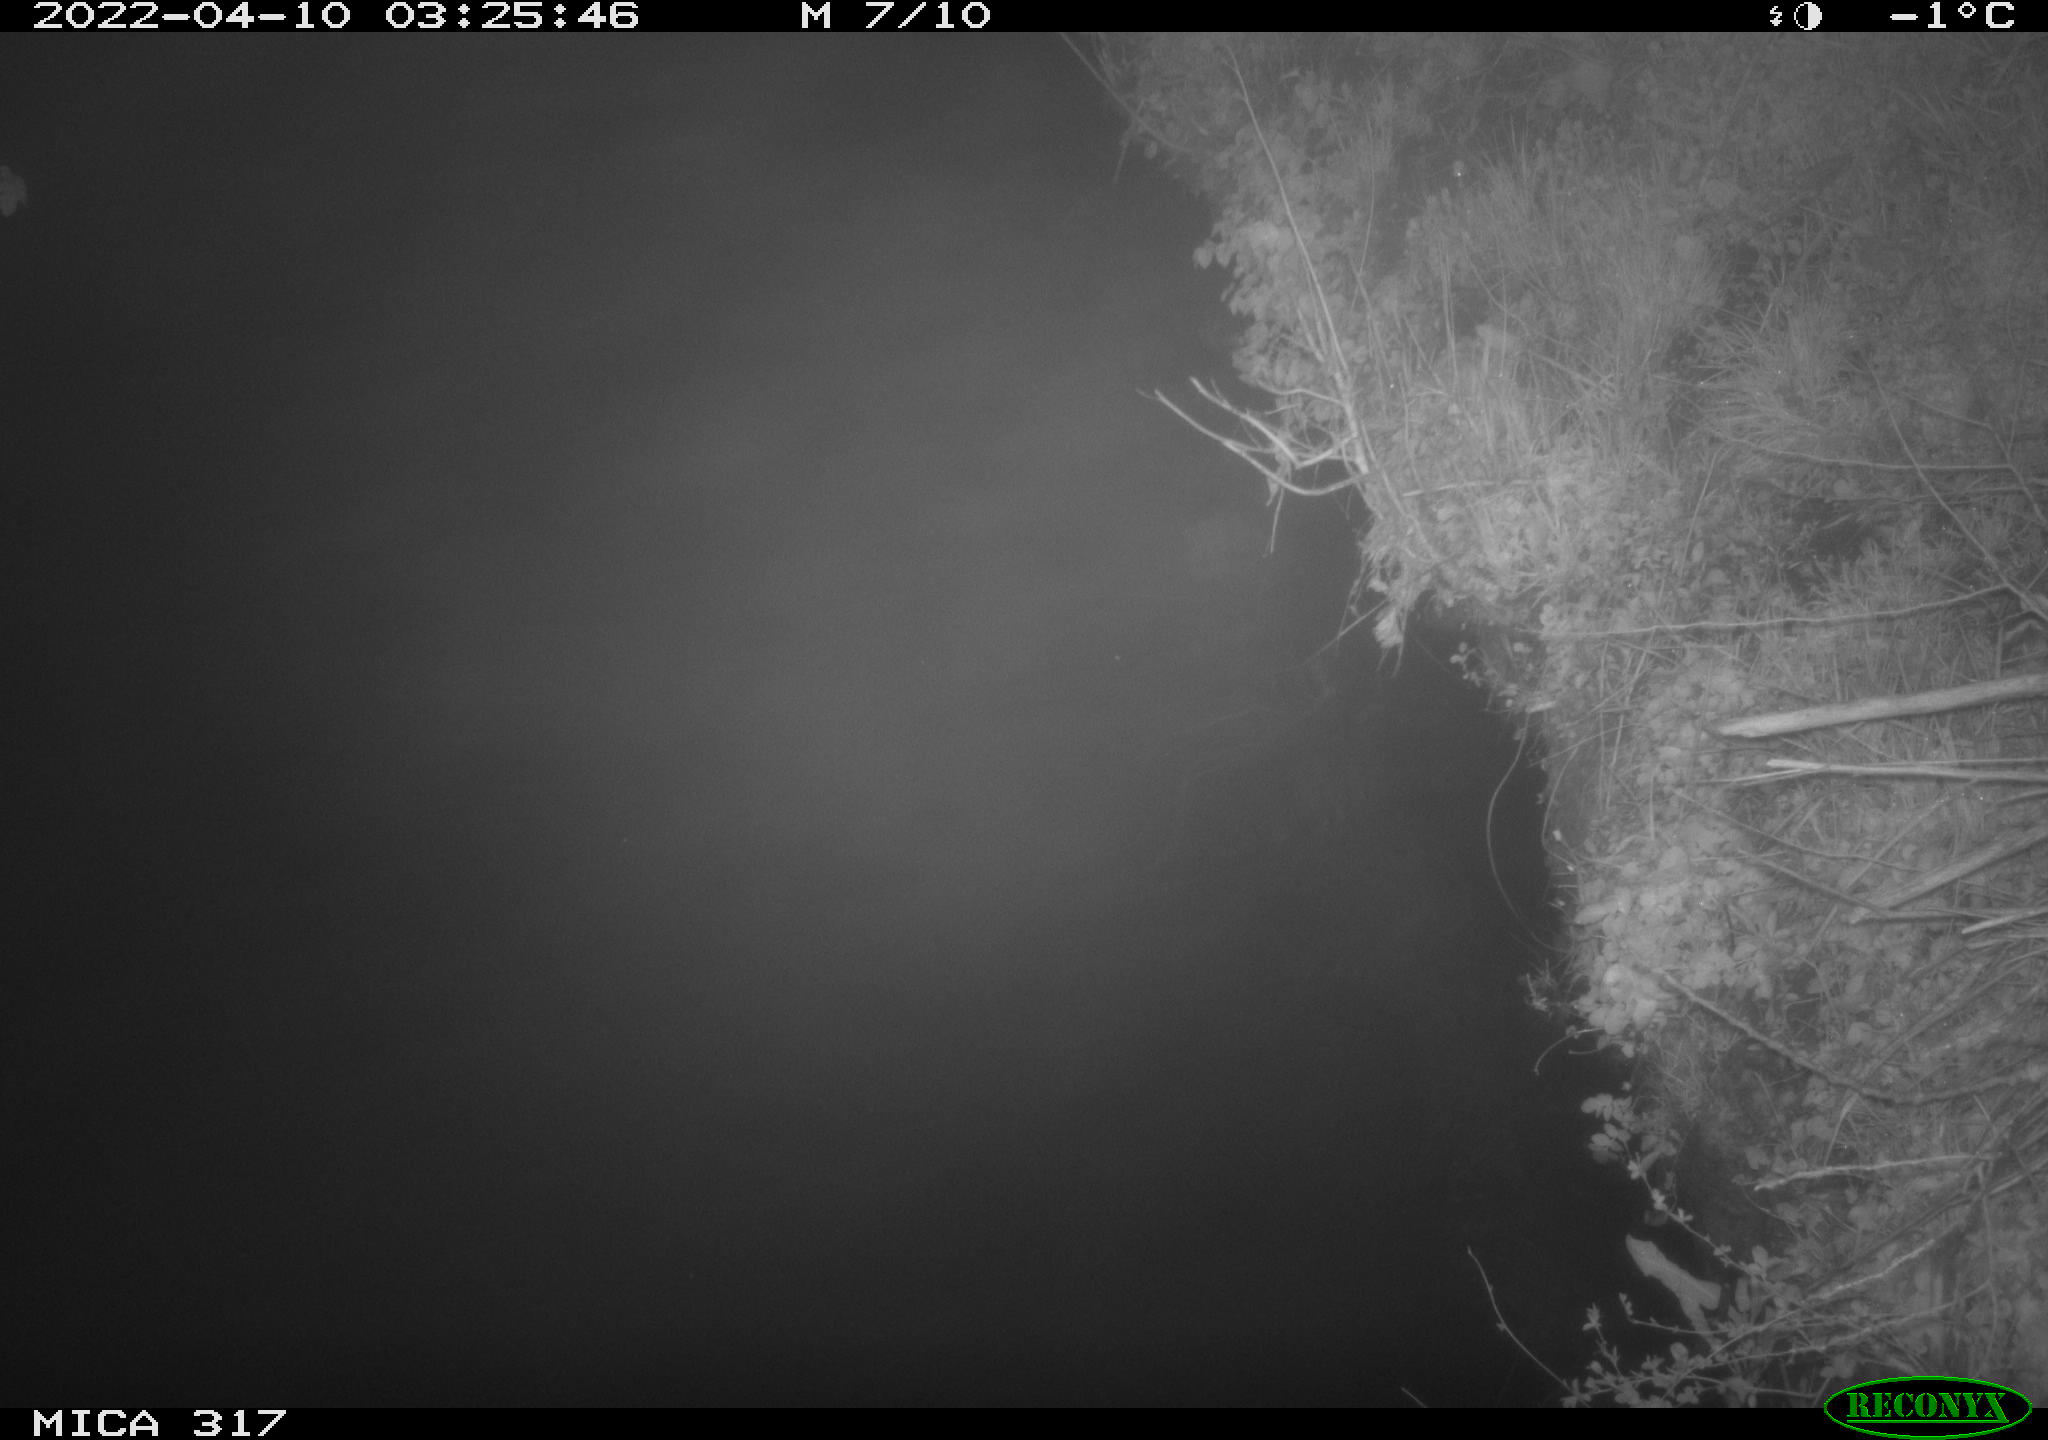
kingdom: Animalia
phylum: Chordata
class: Aves
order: Anseriformes
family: Anatidae
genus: Anas
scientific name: Anas platyrhynchos
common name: Mallard
